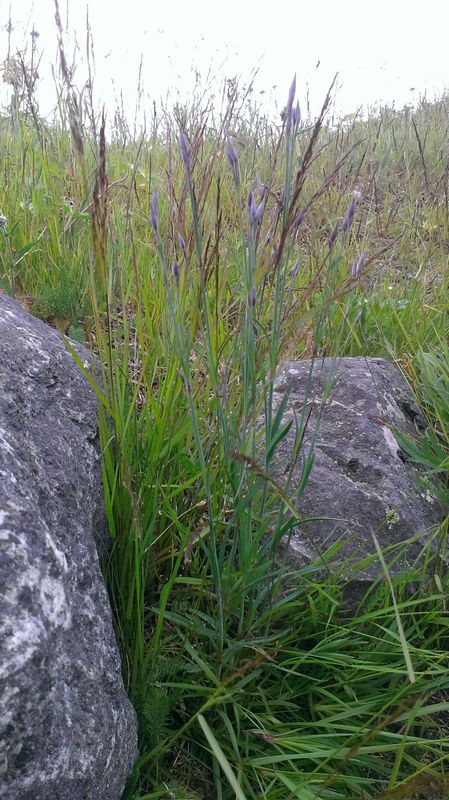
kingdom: Plantae
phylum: Tracheophyta
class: Magnoliopsida
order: Caryophyllales
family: Caryophyllaceae
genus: Dianthus
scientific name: Dianthus superbus
